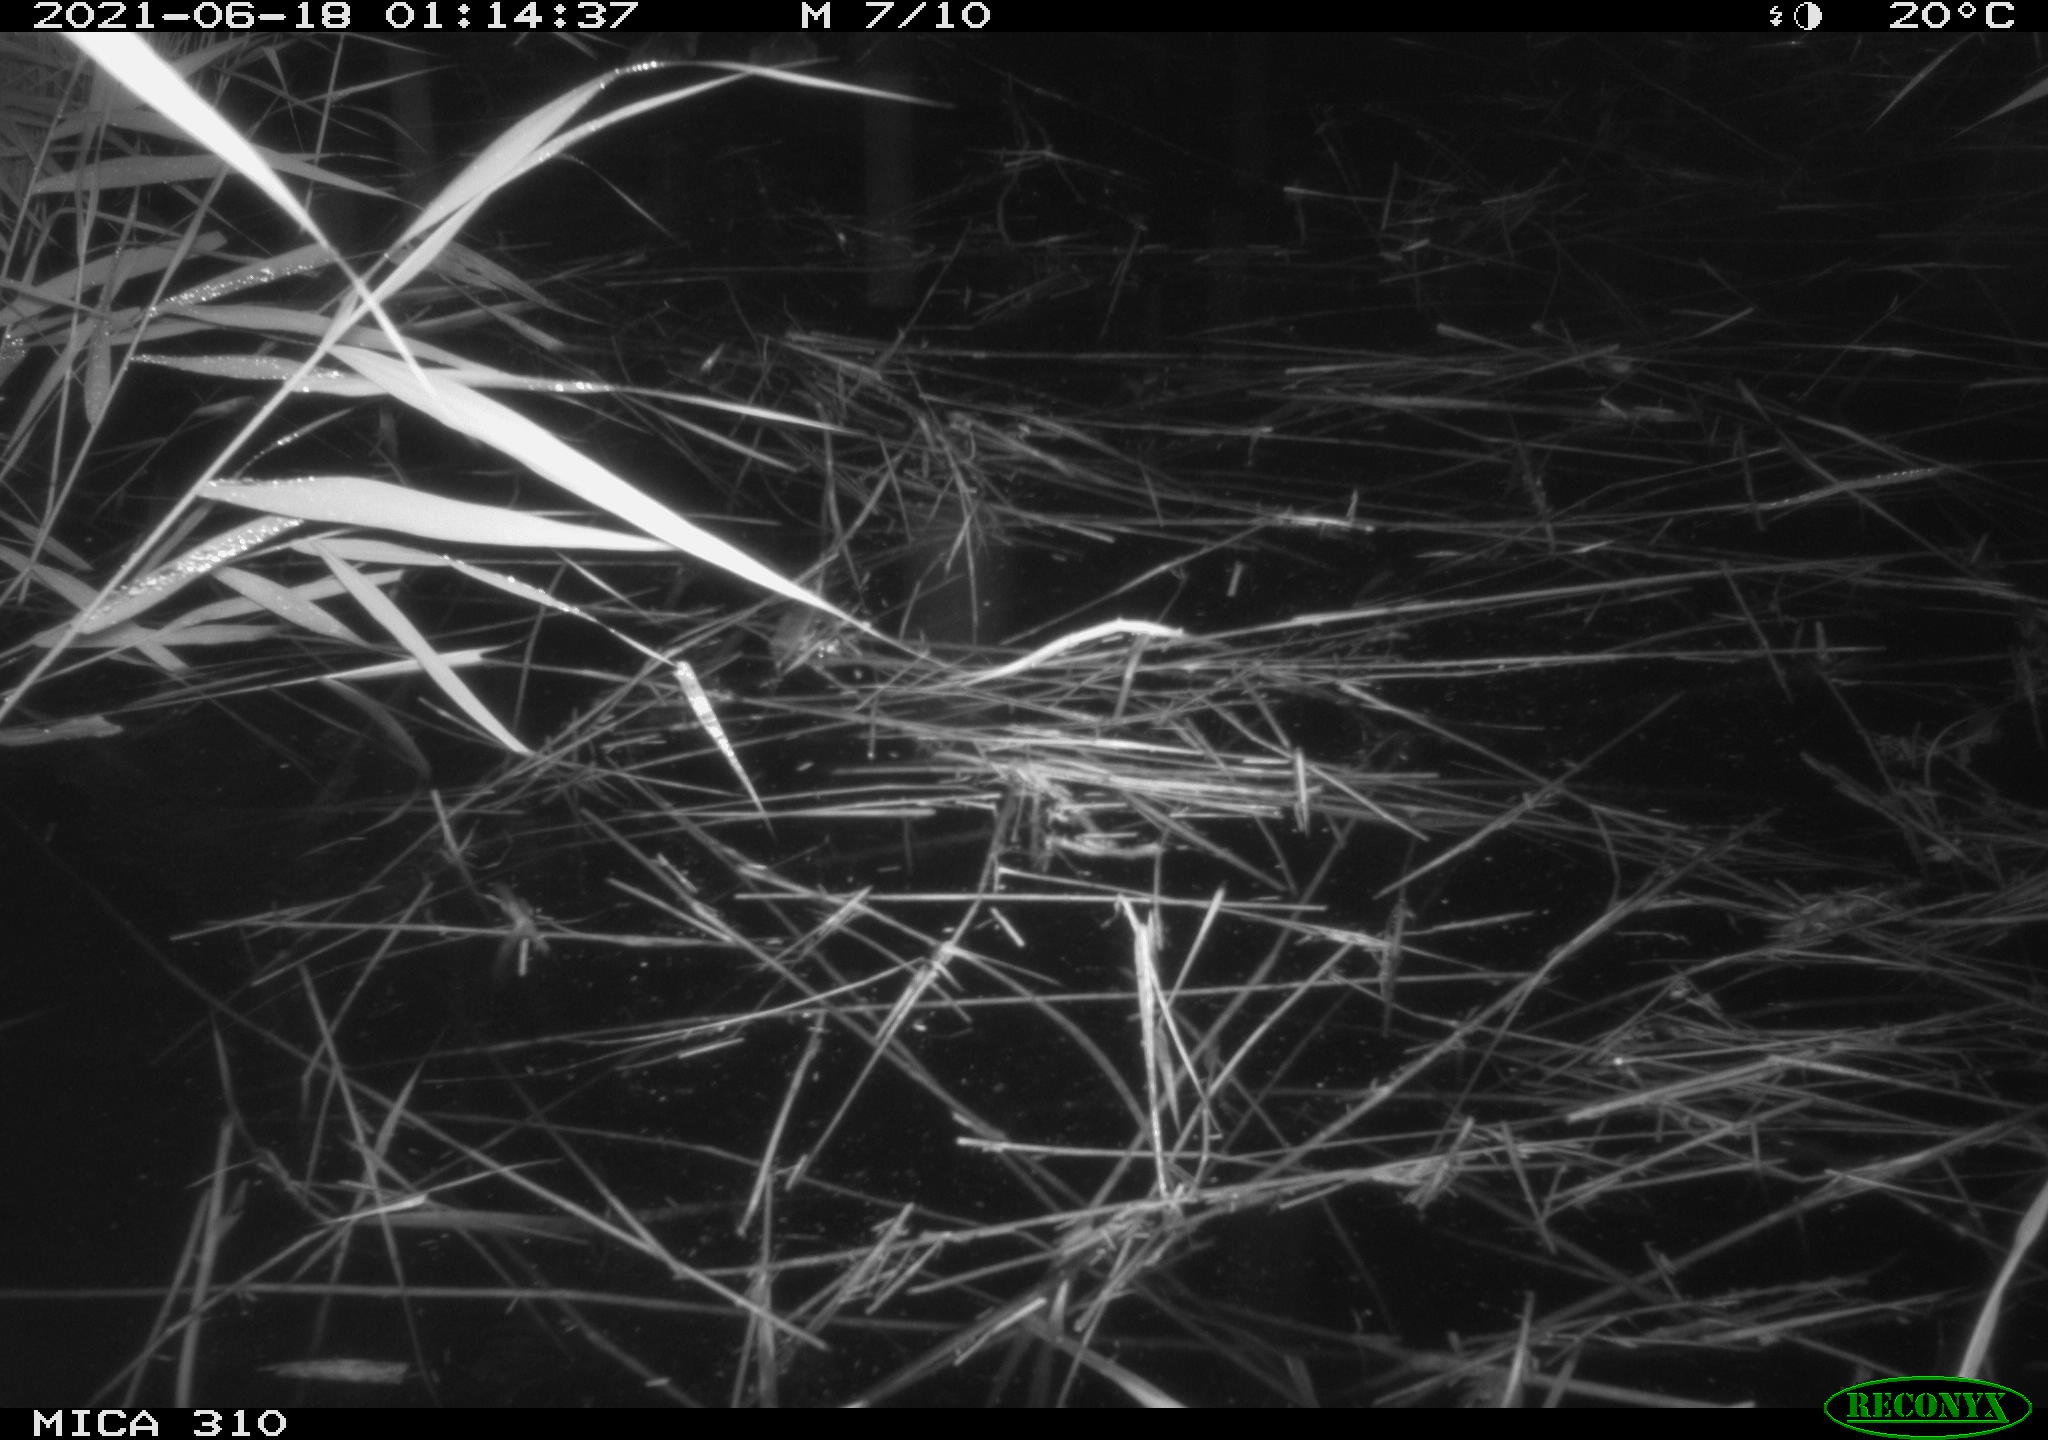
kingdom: Animalia
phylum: Chordata
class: Aves
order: Anseriformes
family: Anatidae
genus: Anas
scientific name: Anas platyrhynchos
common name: Mallard
